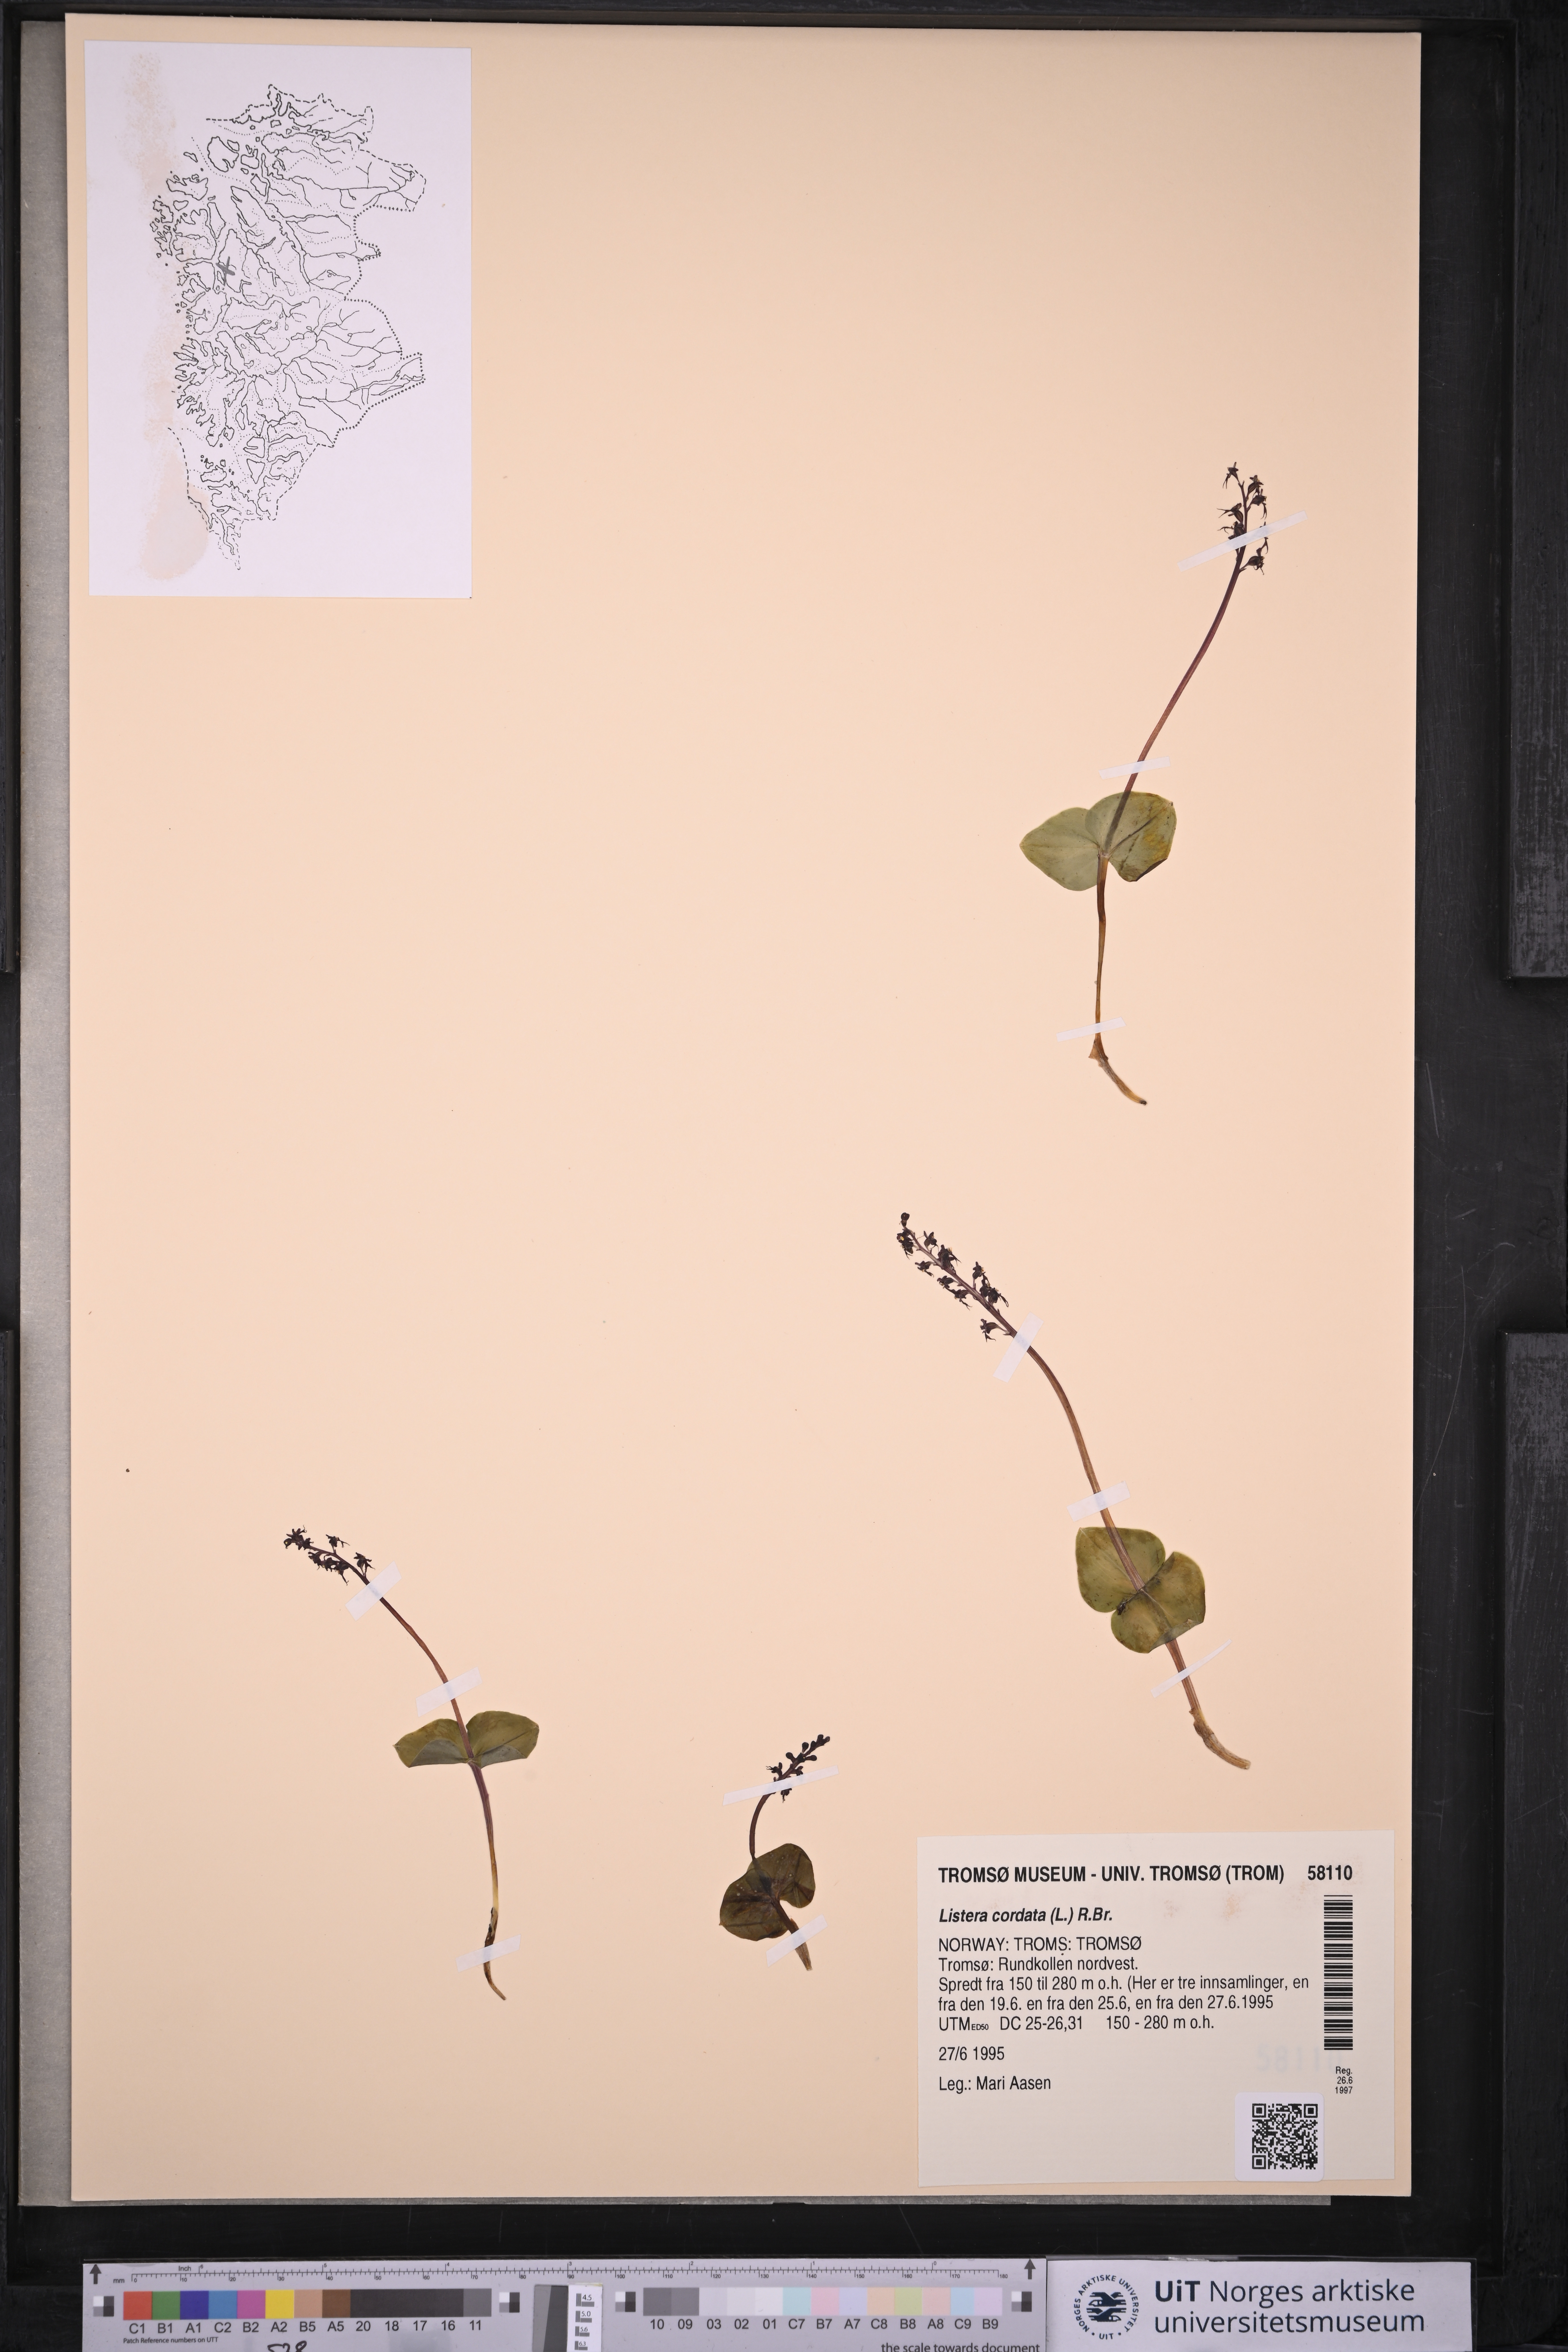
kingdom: Plantae
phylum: Tracheophyta
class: Liliopsida
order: Asparagales
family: Orchidaceae
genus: Neottia
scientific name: Neottia cordata
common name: Lesser twayblade
